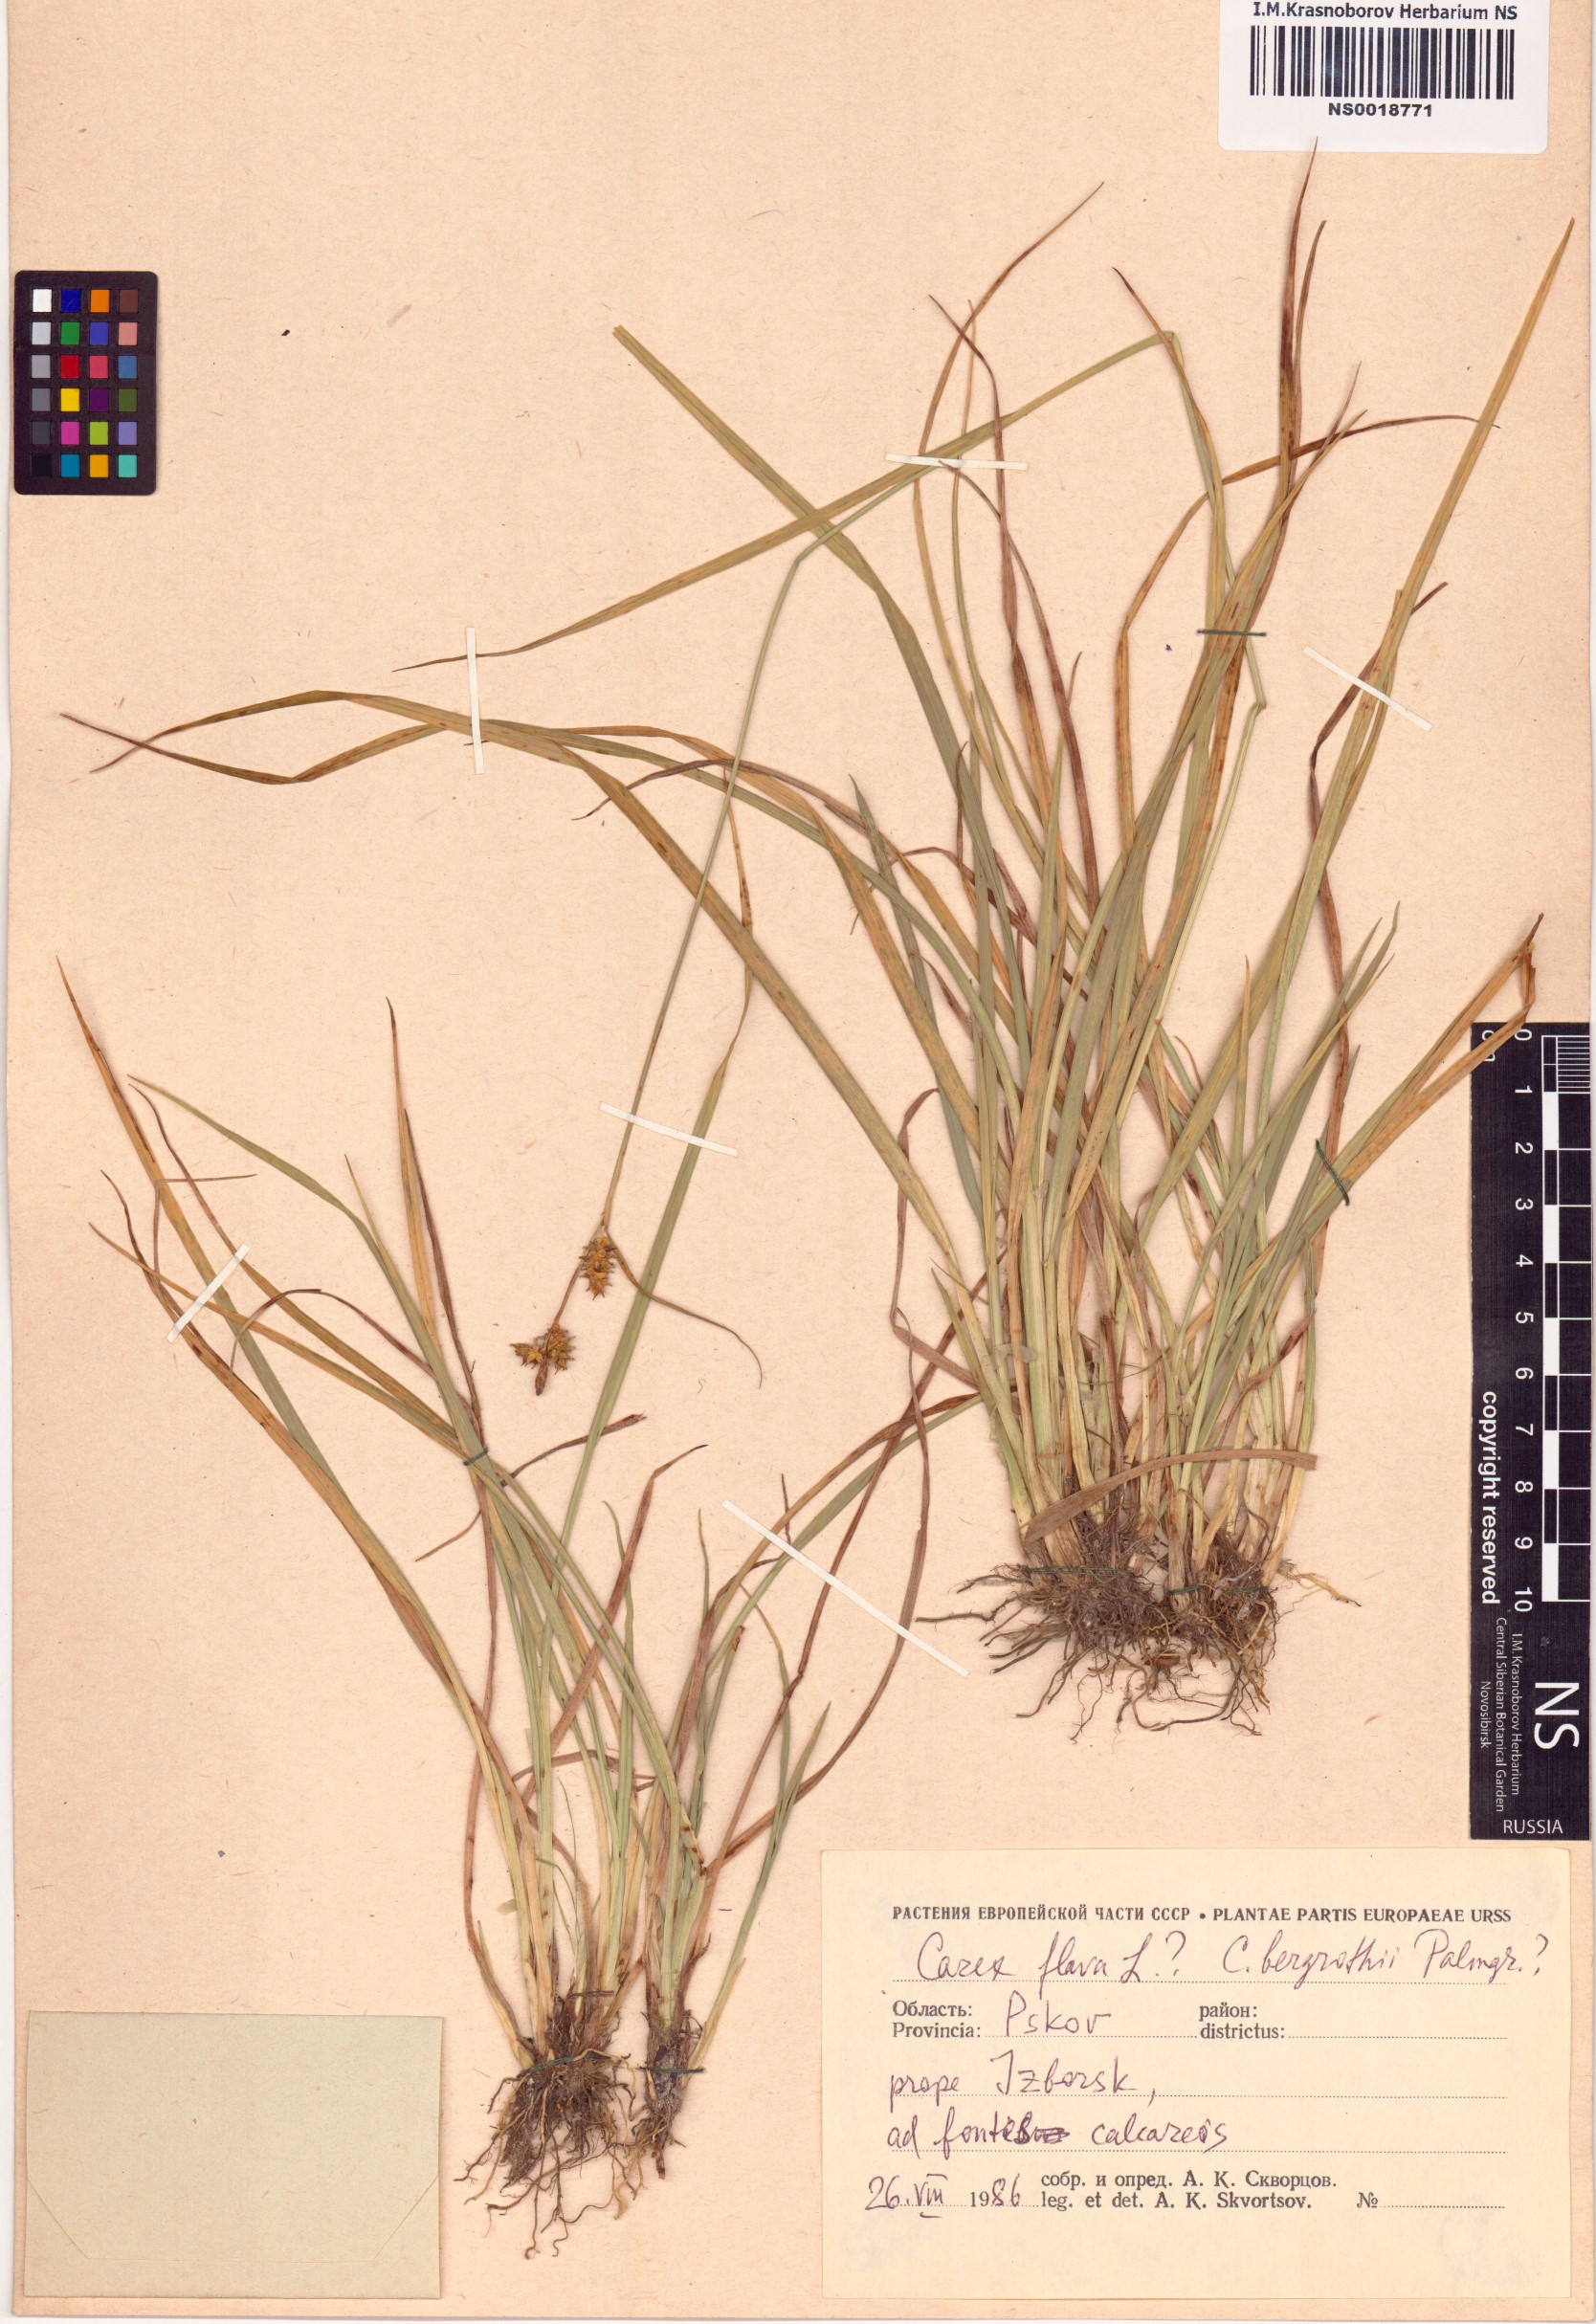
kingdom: Plantae
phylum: Tracheophyta
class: Liliopsida
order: Poales
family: Cyperaceae
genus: Carex
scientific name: Carex flava
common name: Large yellow-sedge
